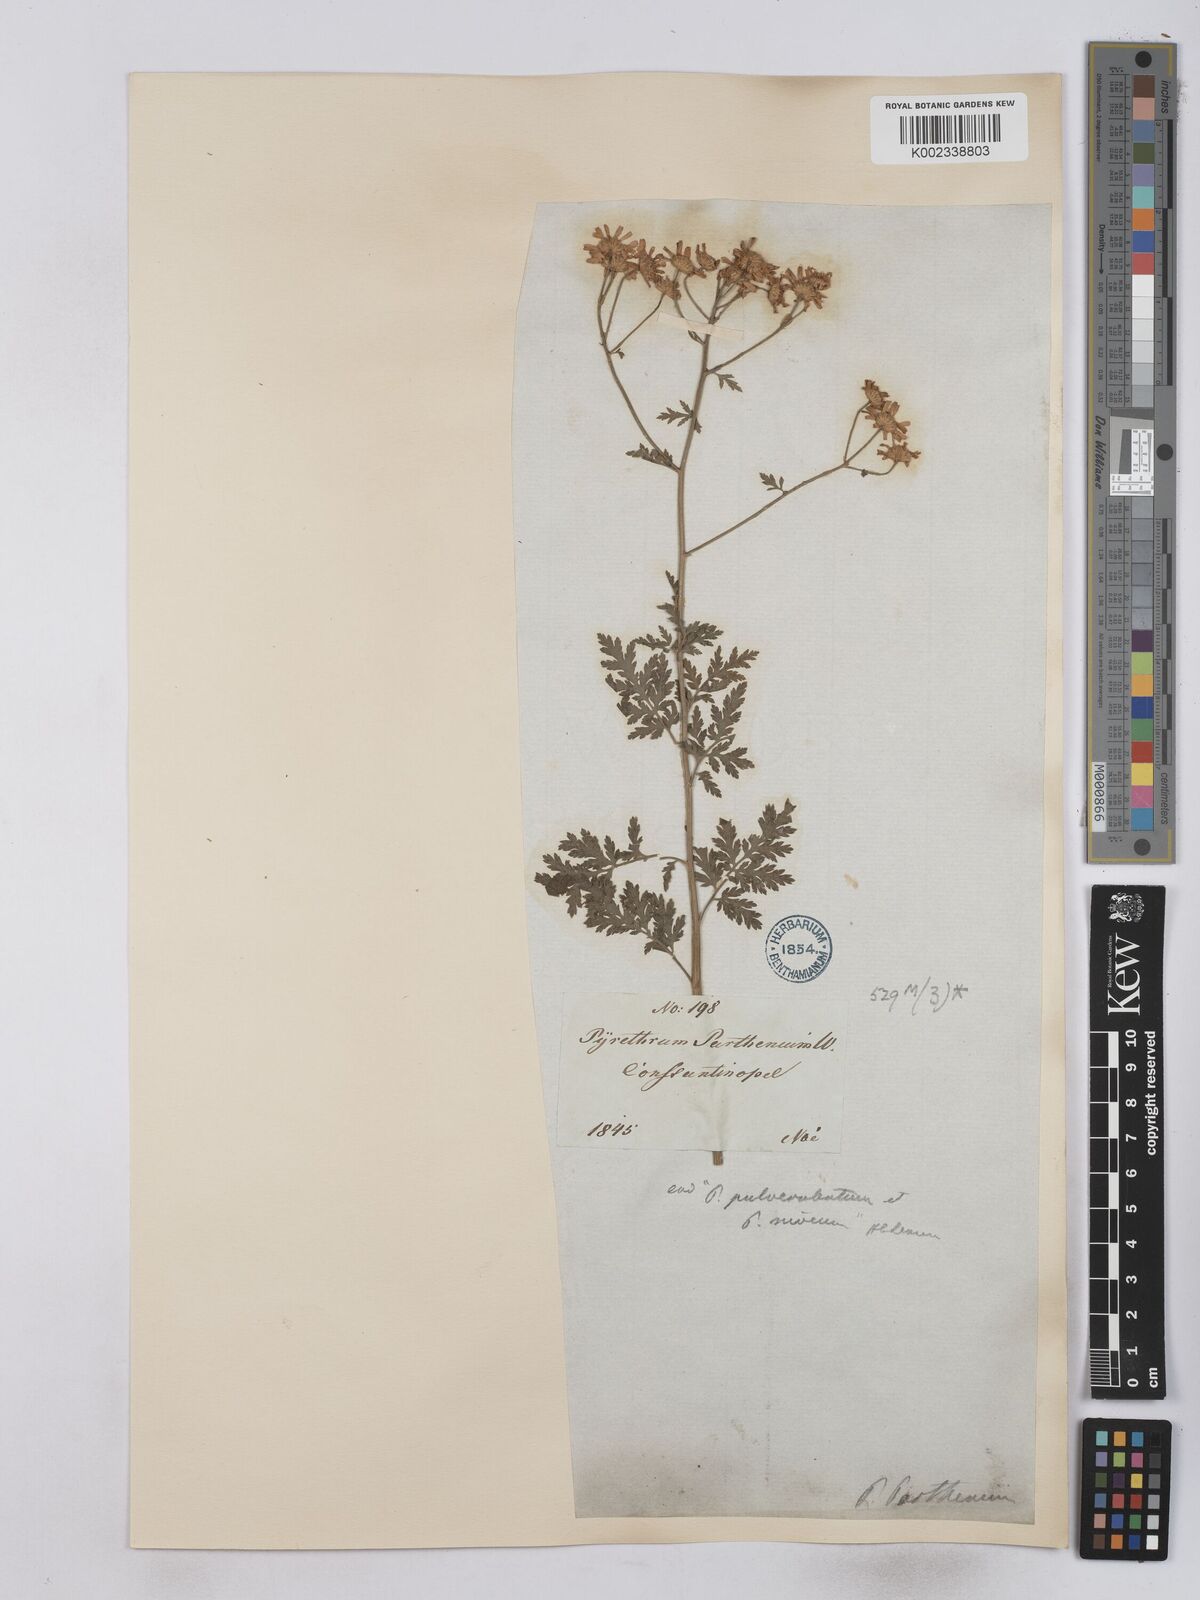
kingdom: Plantae
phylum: Tracheophyta
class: Magnoliopsida
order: Asterales
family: Asteraceae
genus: Tanacetum
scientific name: Tanacetum parthenium
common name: Feverfew
